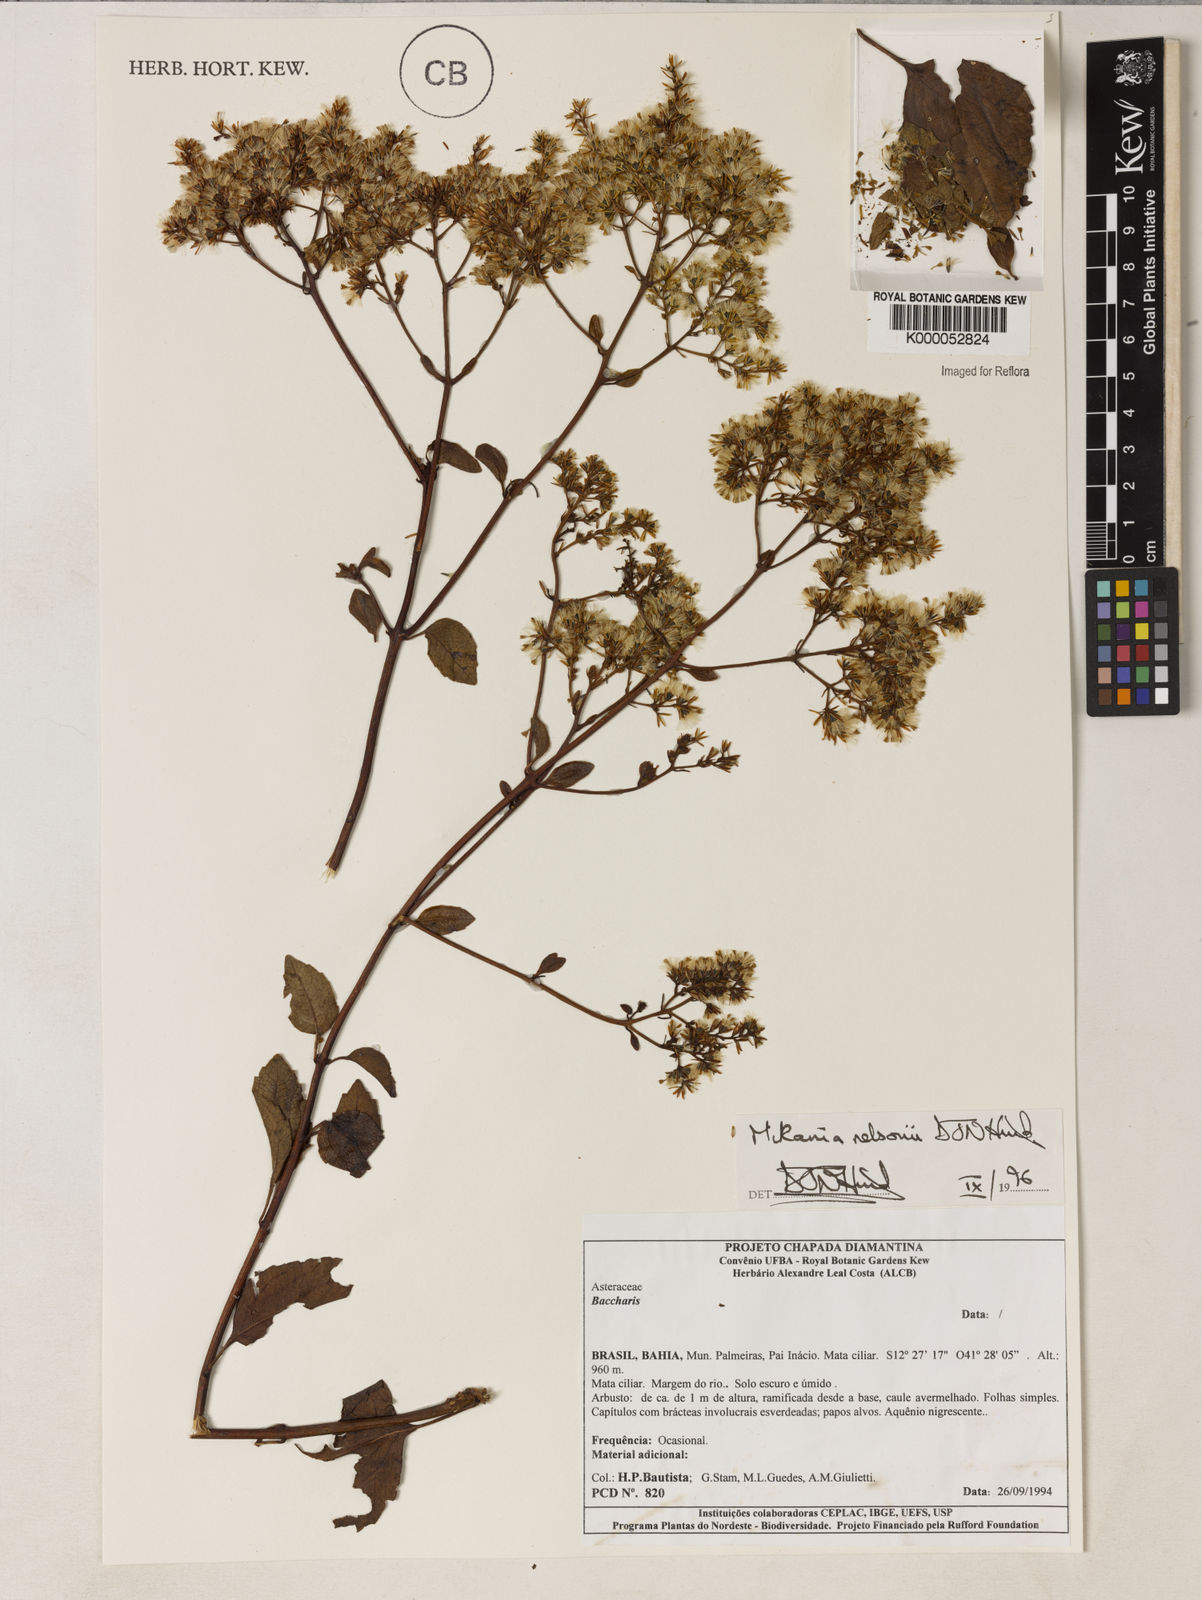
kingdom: Plantae
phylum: Tracheophyta
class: Magnoliopsida
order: Asterales
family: Asteraceae
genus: Mikania
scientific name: Mikania nelsonii
